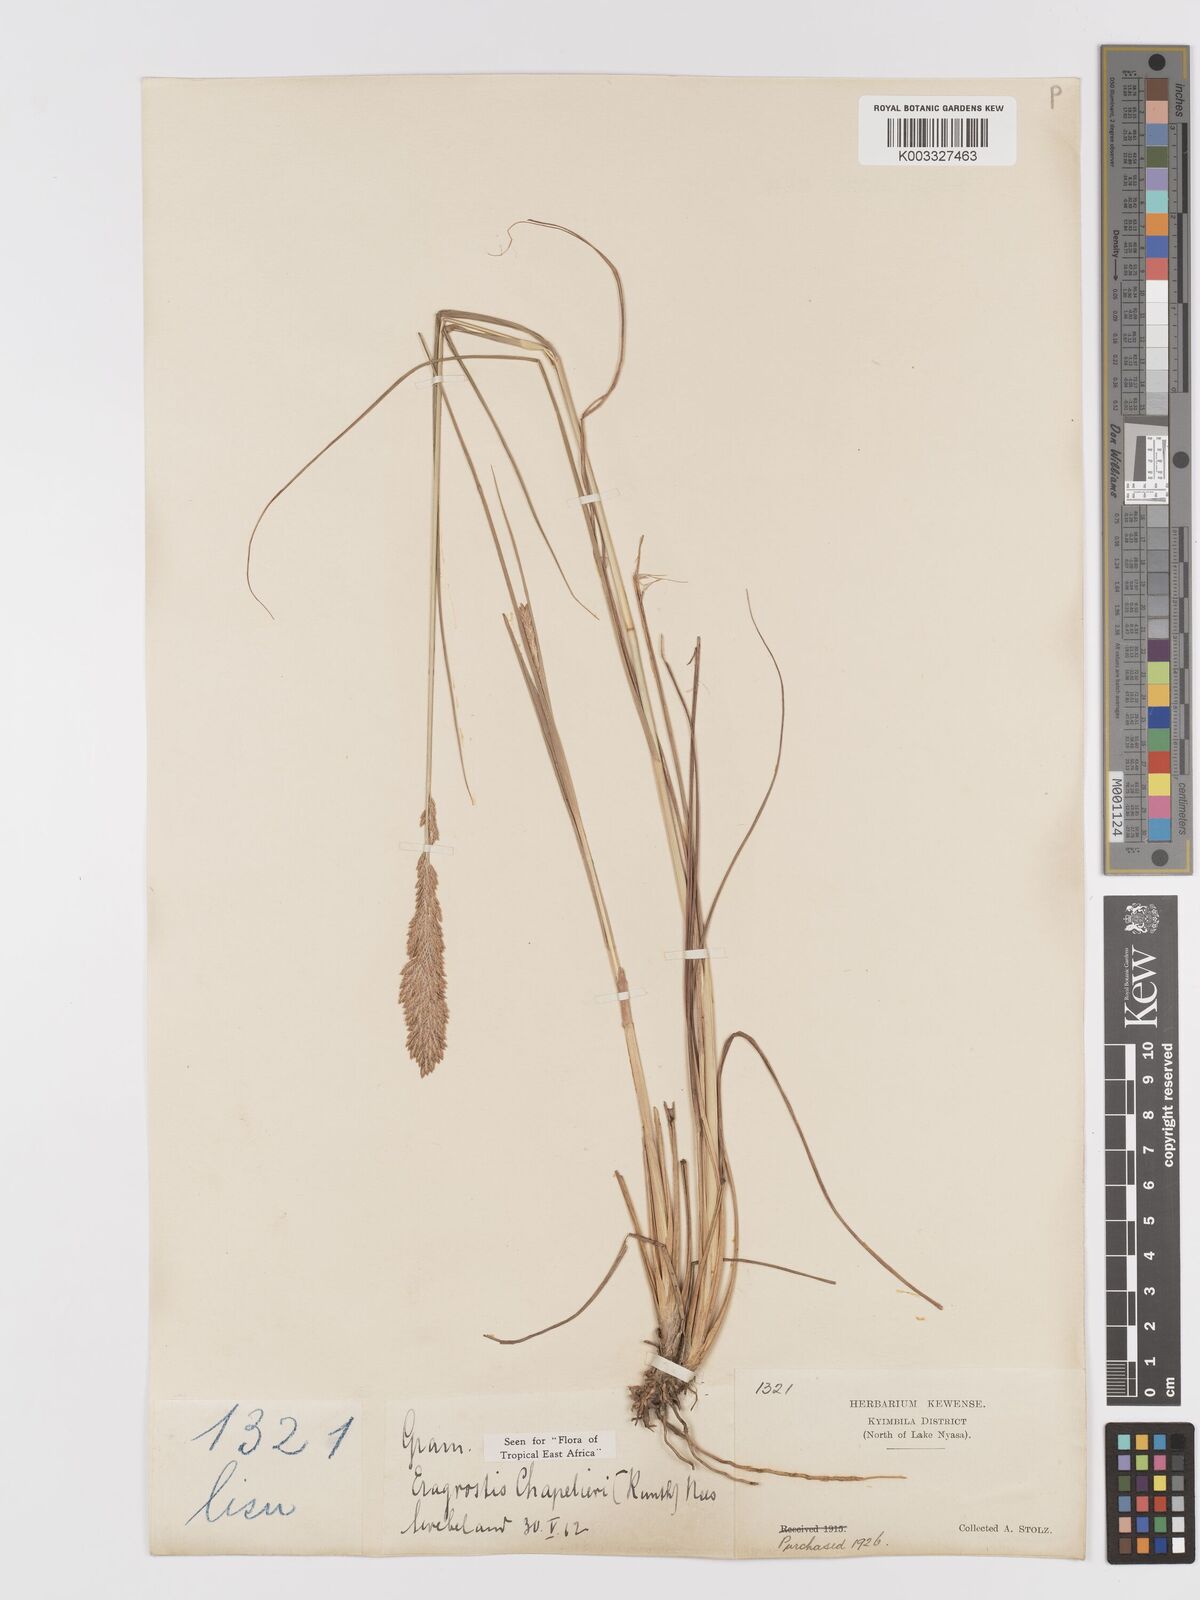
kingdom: Plantae
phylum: Tracheophyta
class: Liliopsida
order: Poales
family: Poaceae
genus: Eragrostis
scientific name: Eragrostis chapelieri
